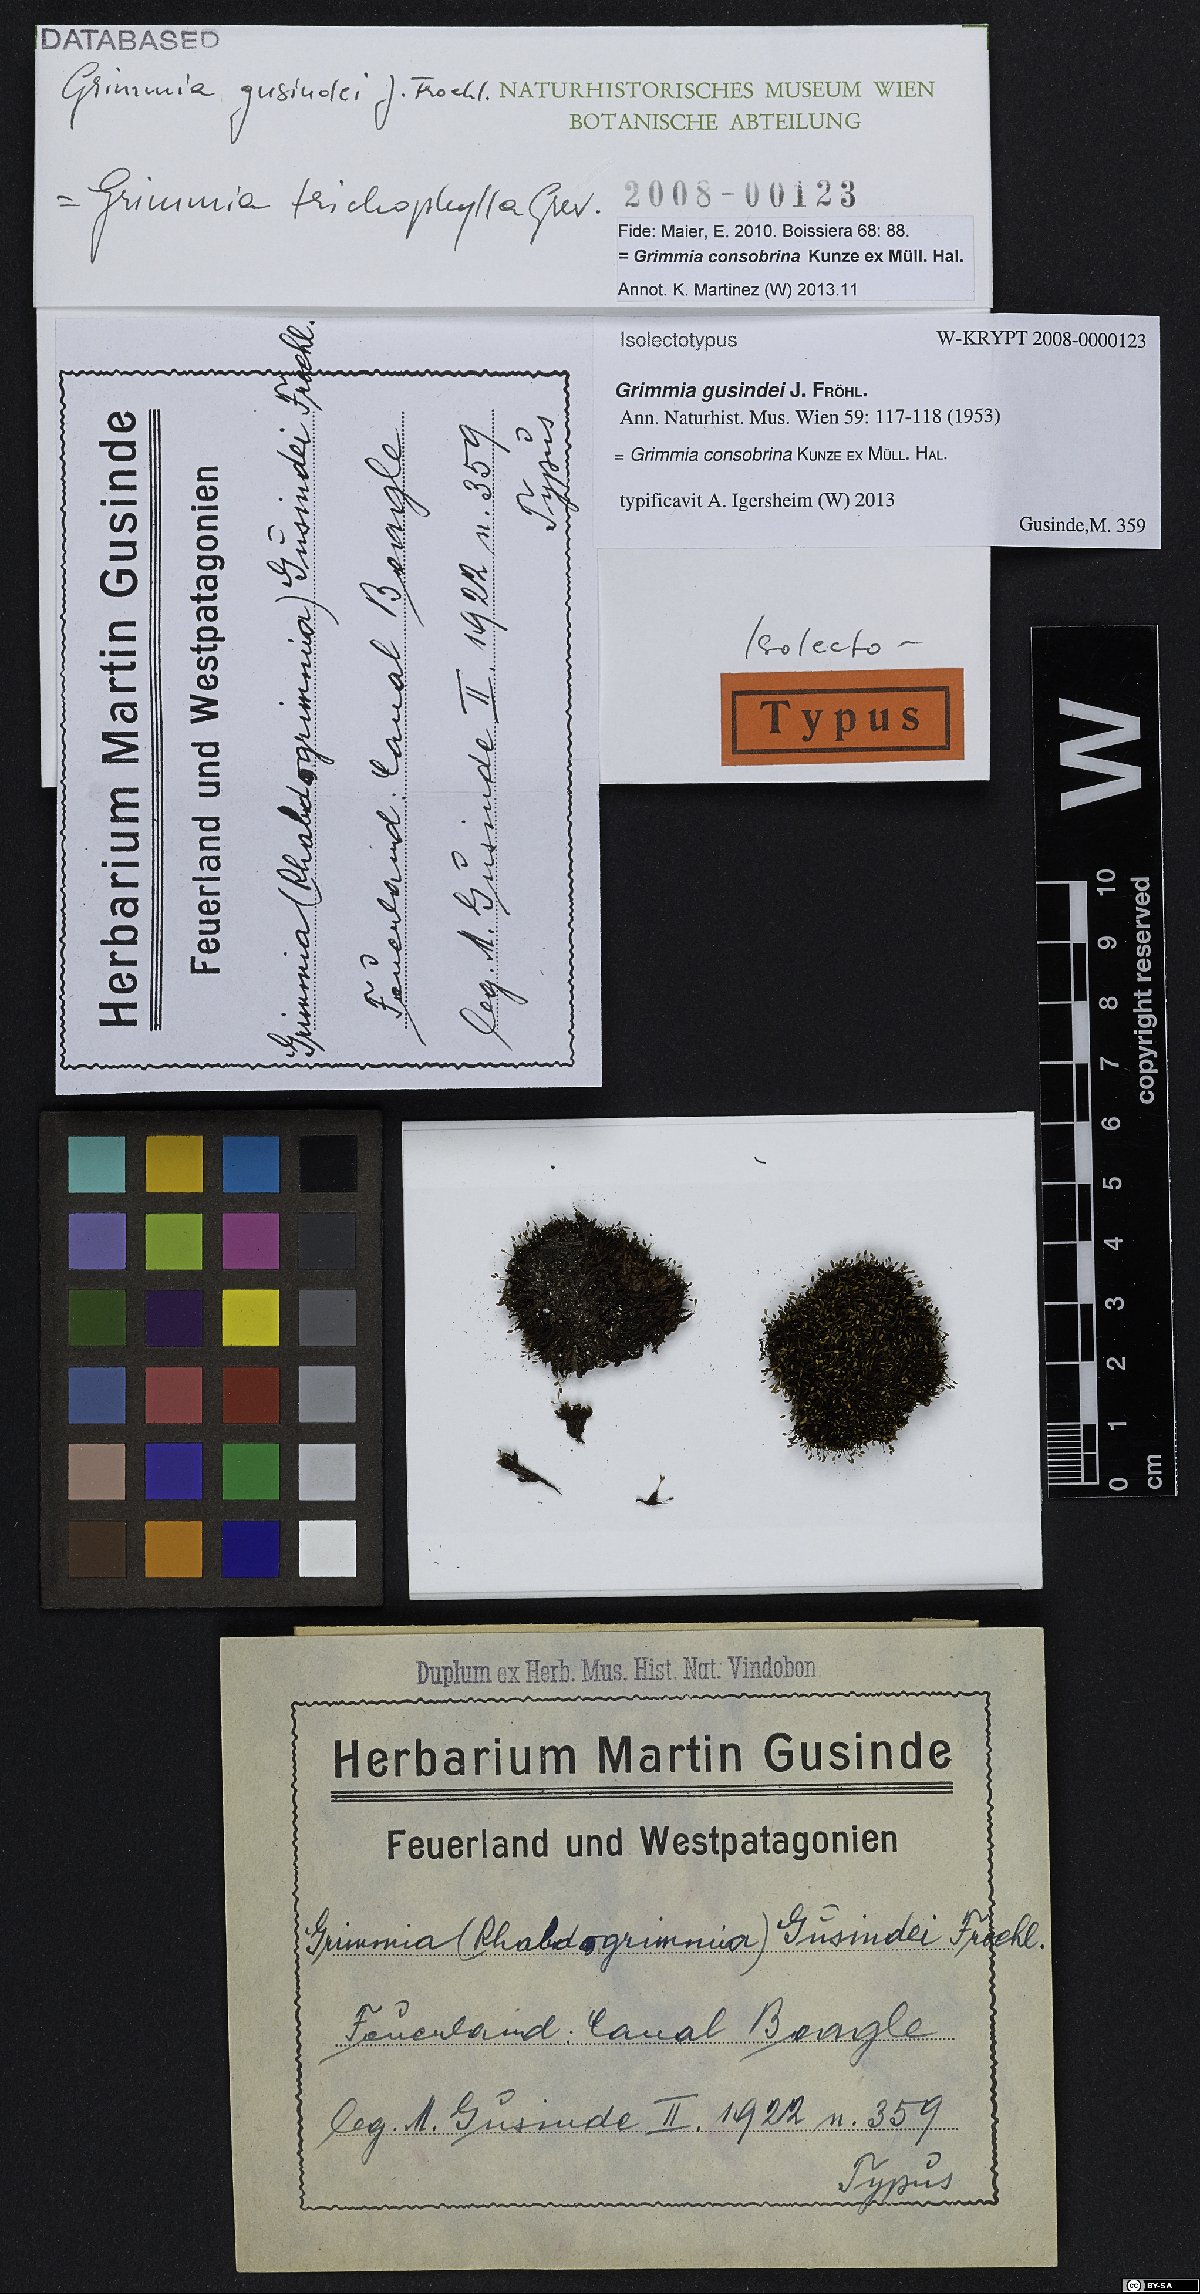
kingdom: Plantae
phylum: Bryophyta
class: Bryopsida
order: Grimmiales
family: Grimmiaceae
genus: Grimmia
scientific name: Grimmia consobrina
